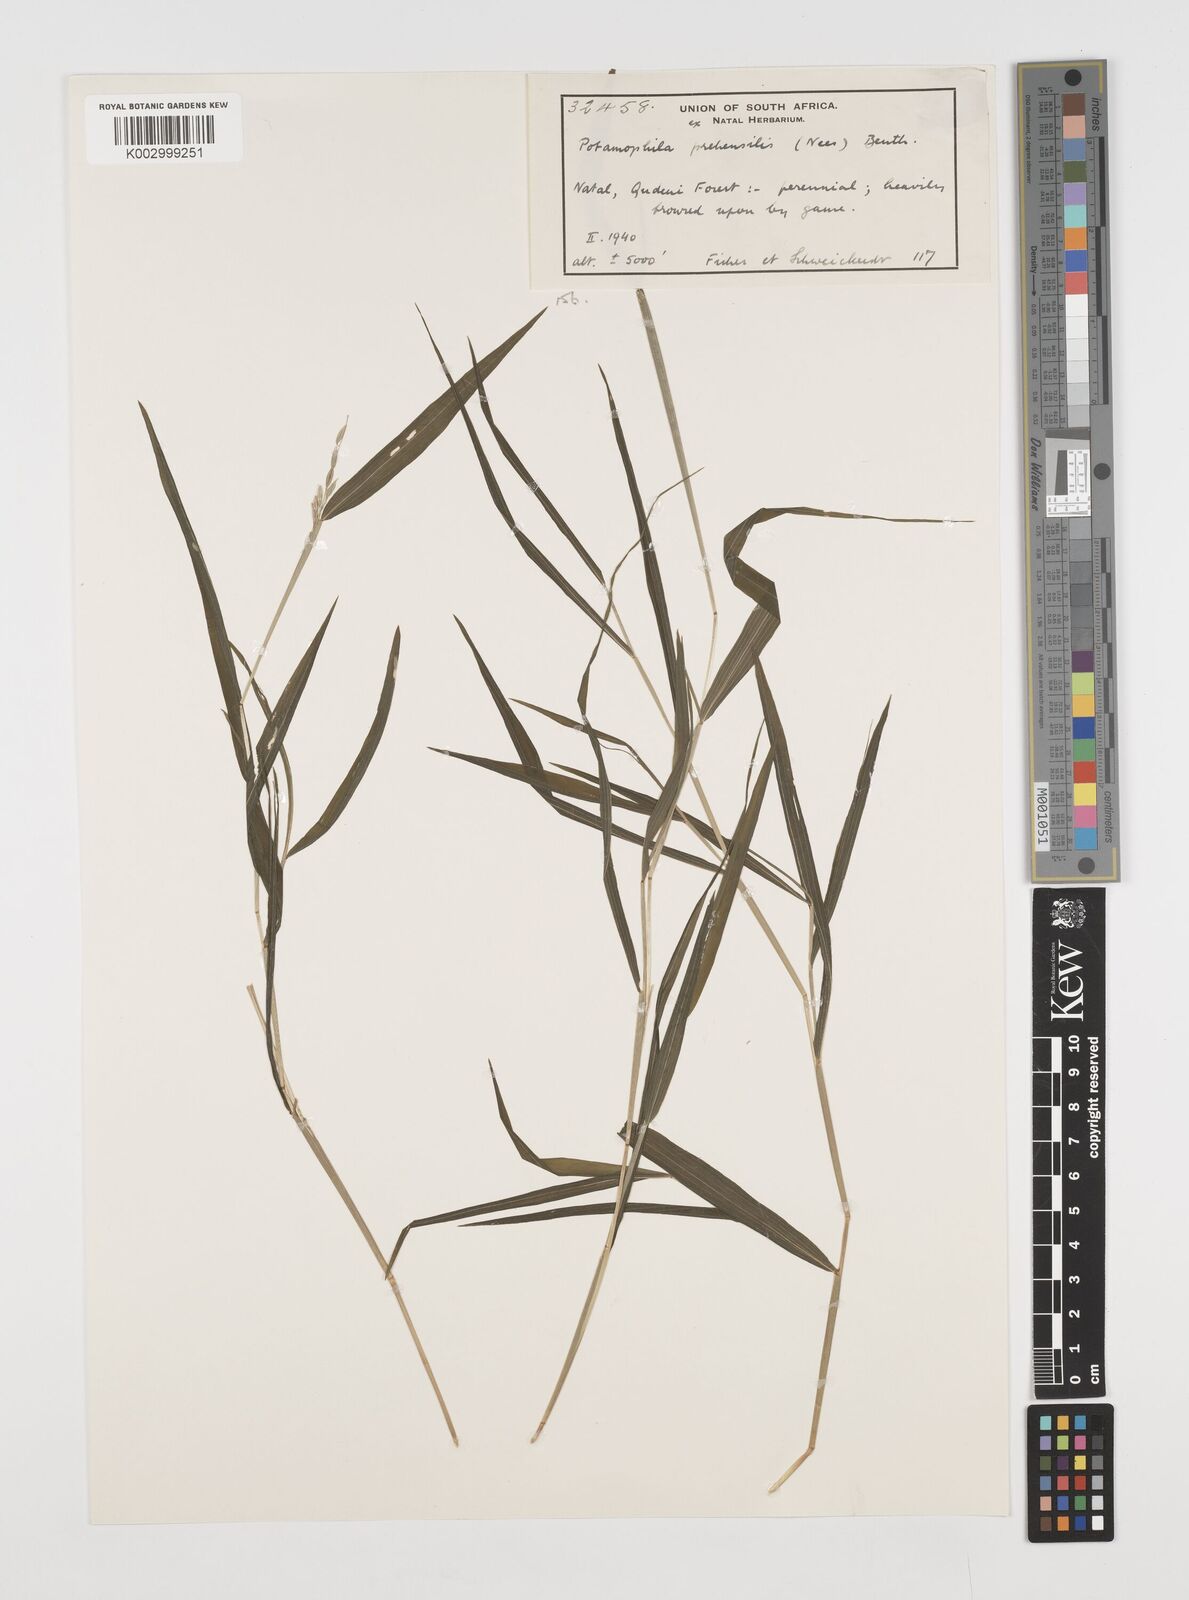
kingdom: Plantae
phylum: Tracheophyta
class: Liliopsida
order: Poales
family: Poaceae
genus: Prosphytochloa
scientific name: Prosphytochloa prehensilis
